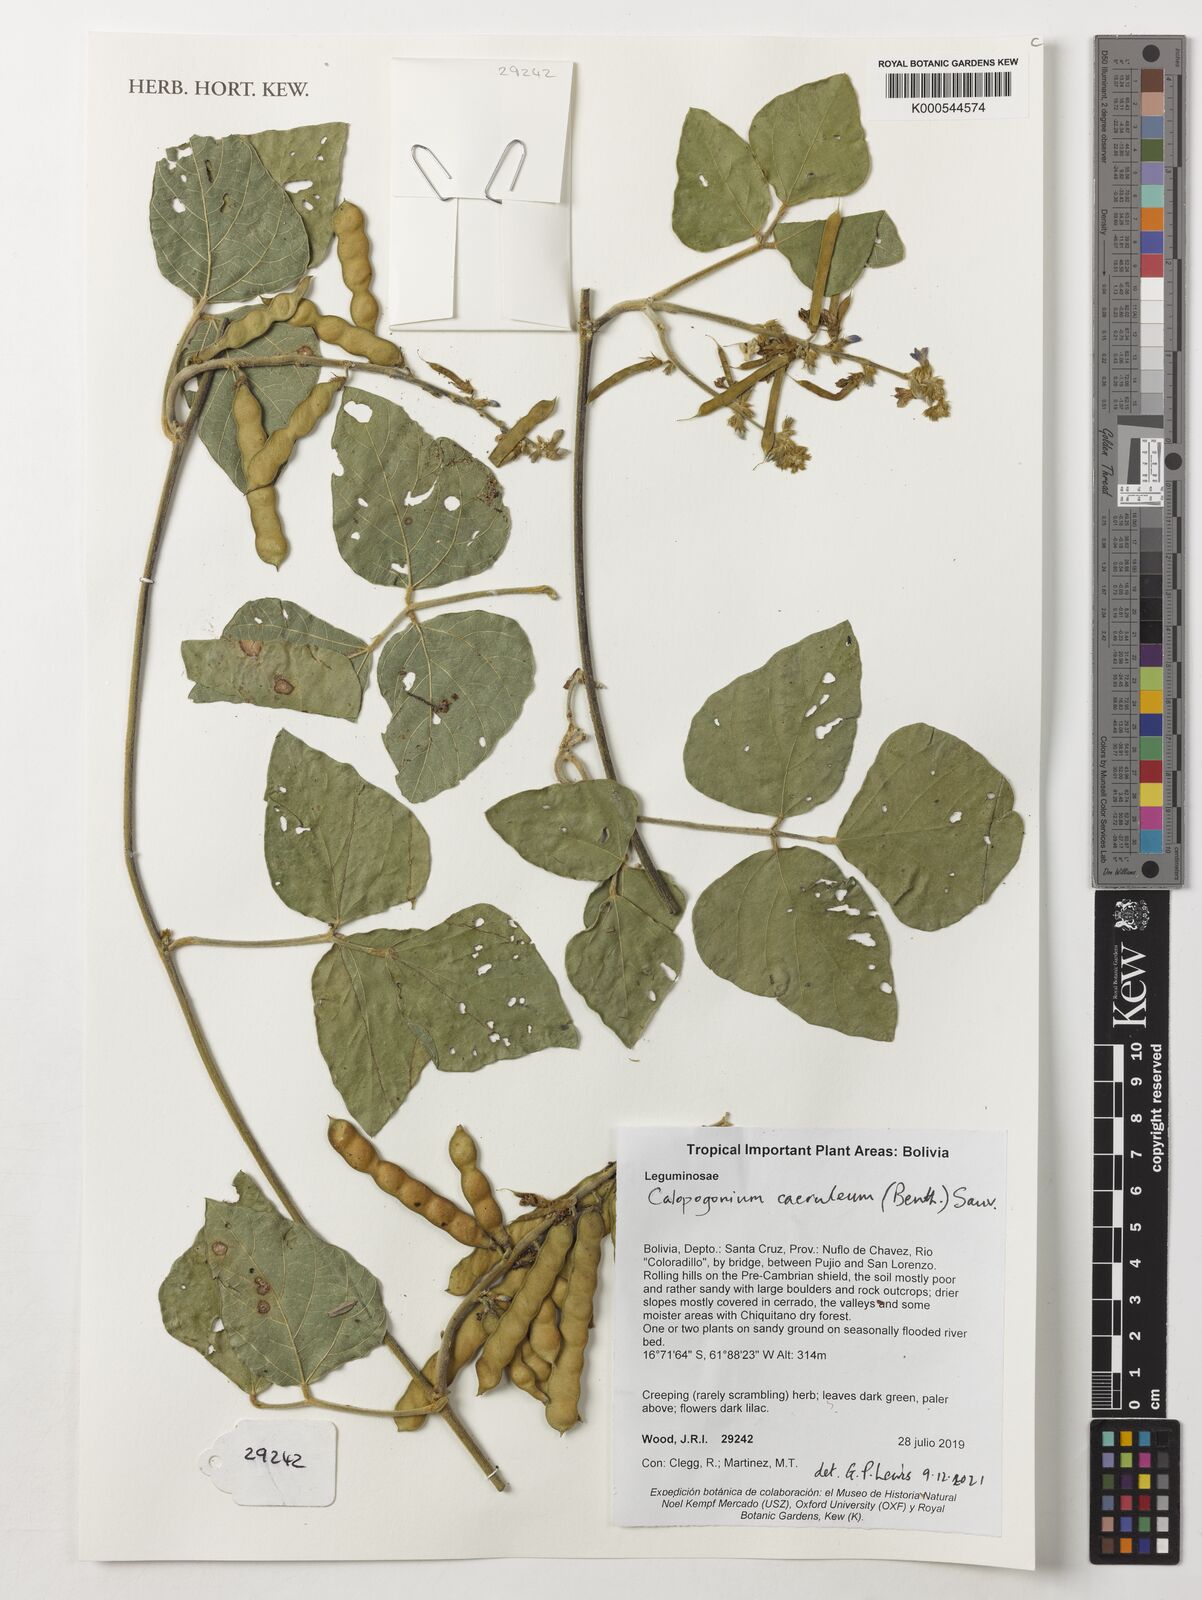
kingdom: Plantae
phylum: Tracheophyta
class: Magnoliopsida
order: Fabales
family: Fabaceae
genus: Calopogonium
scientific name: Calopogonium caeruleum
